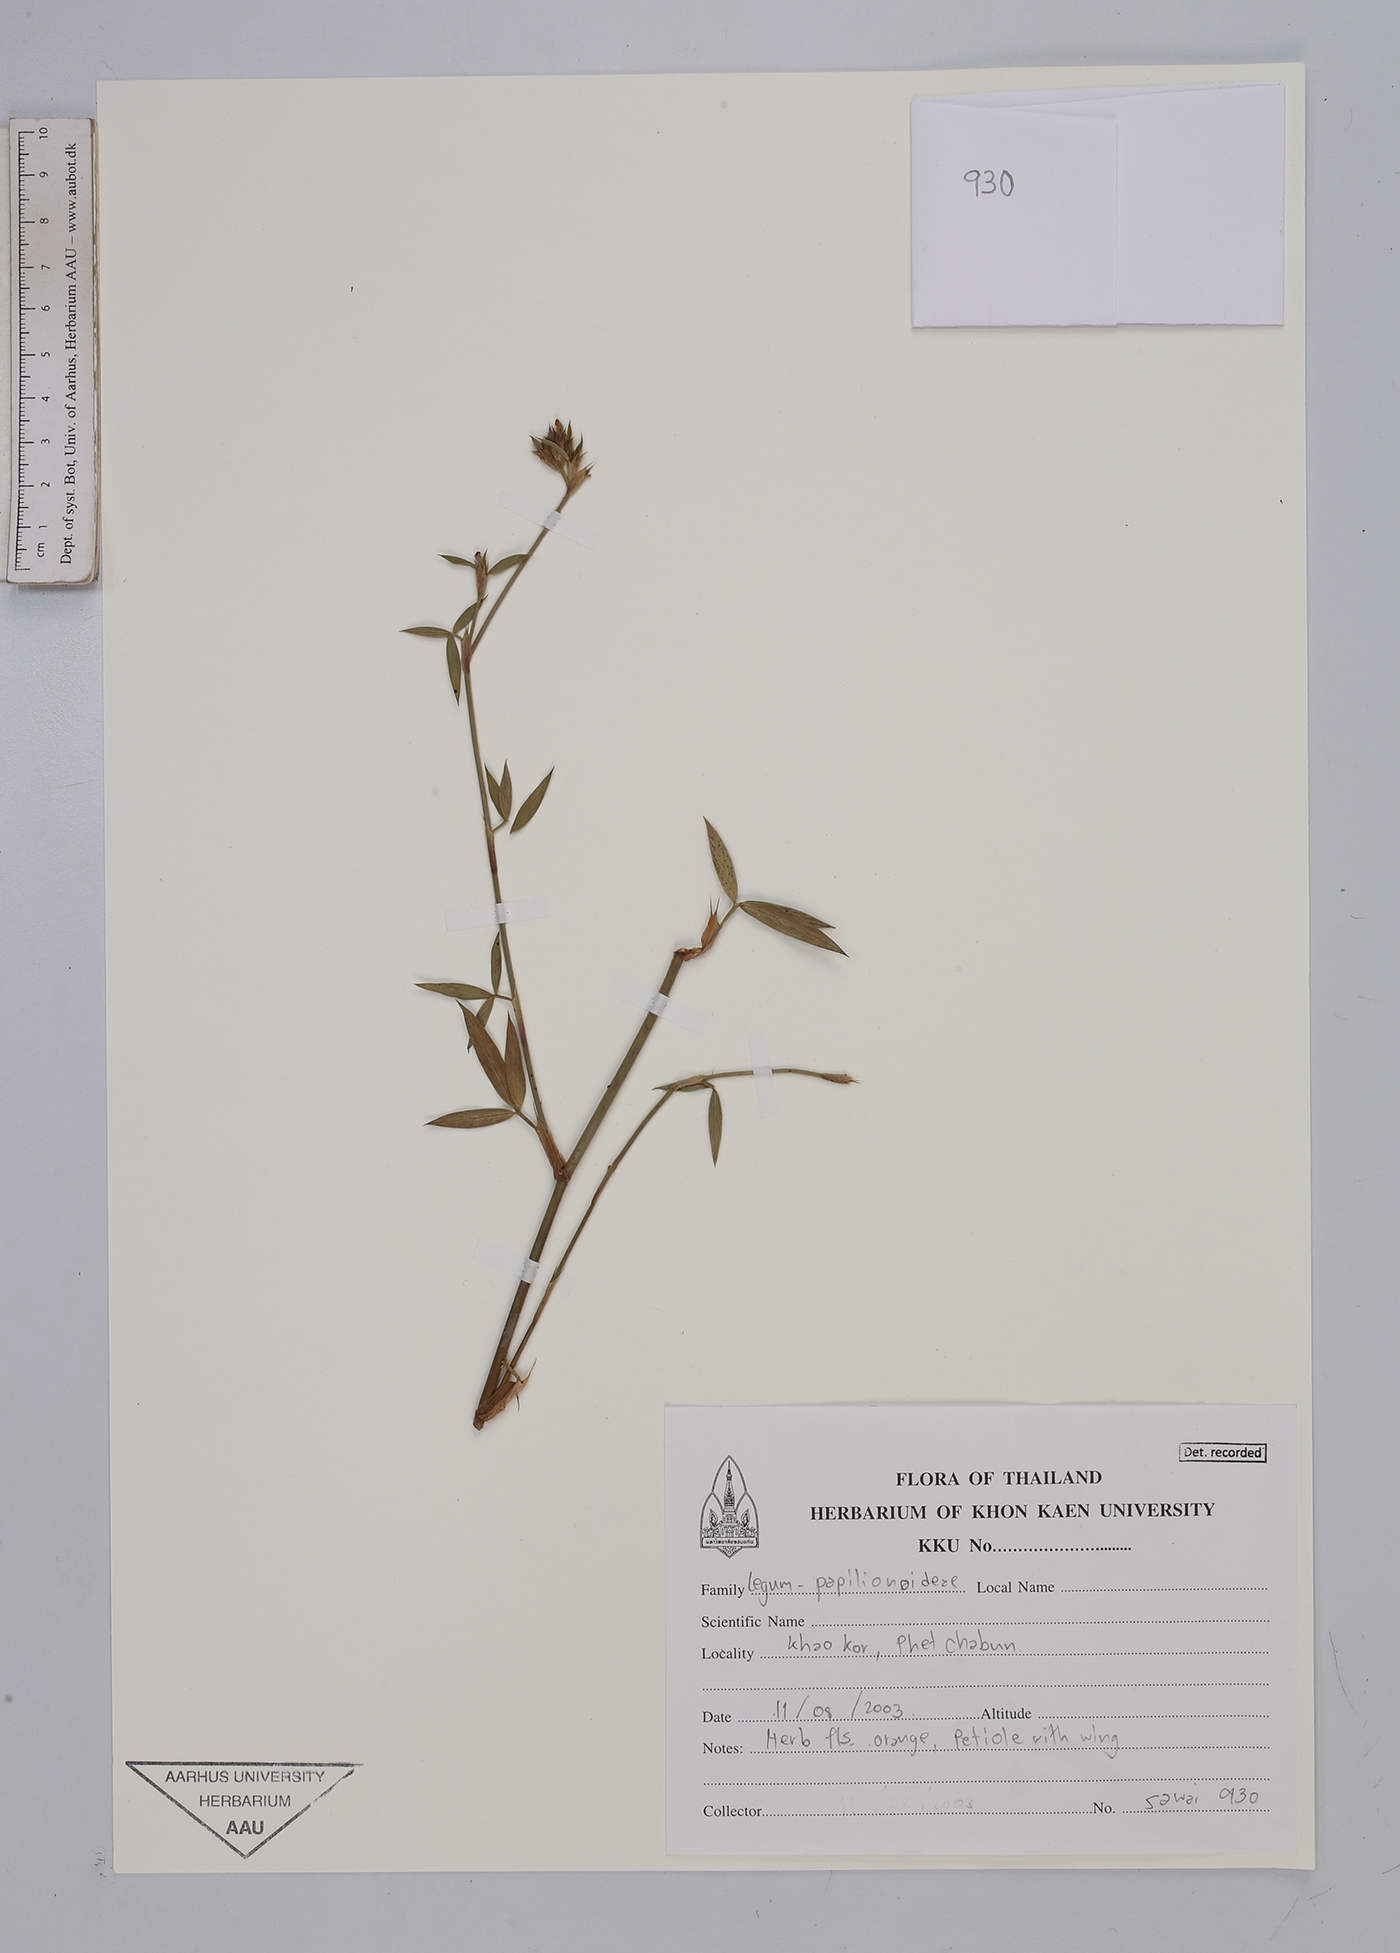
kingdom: Plantae
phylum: Tracheophyta
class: Magnoliopsida
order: Fabales
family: Fabaceae
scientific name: Fabaceae
